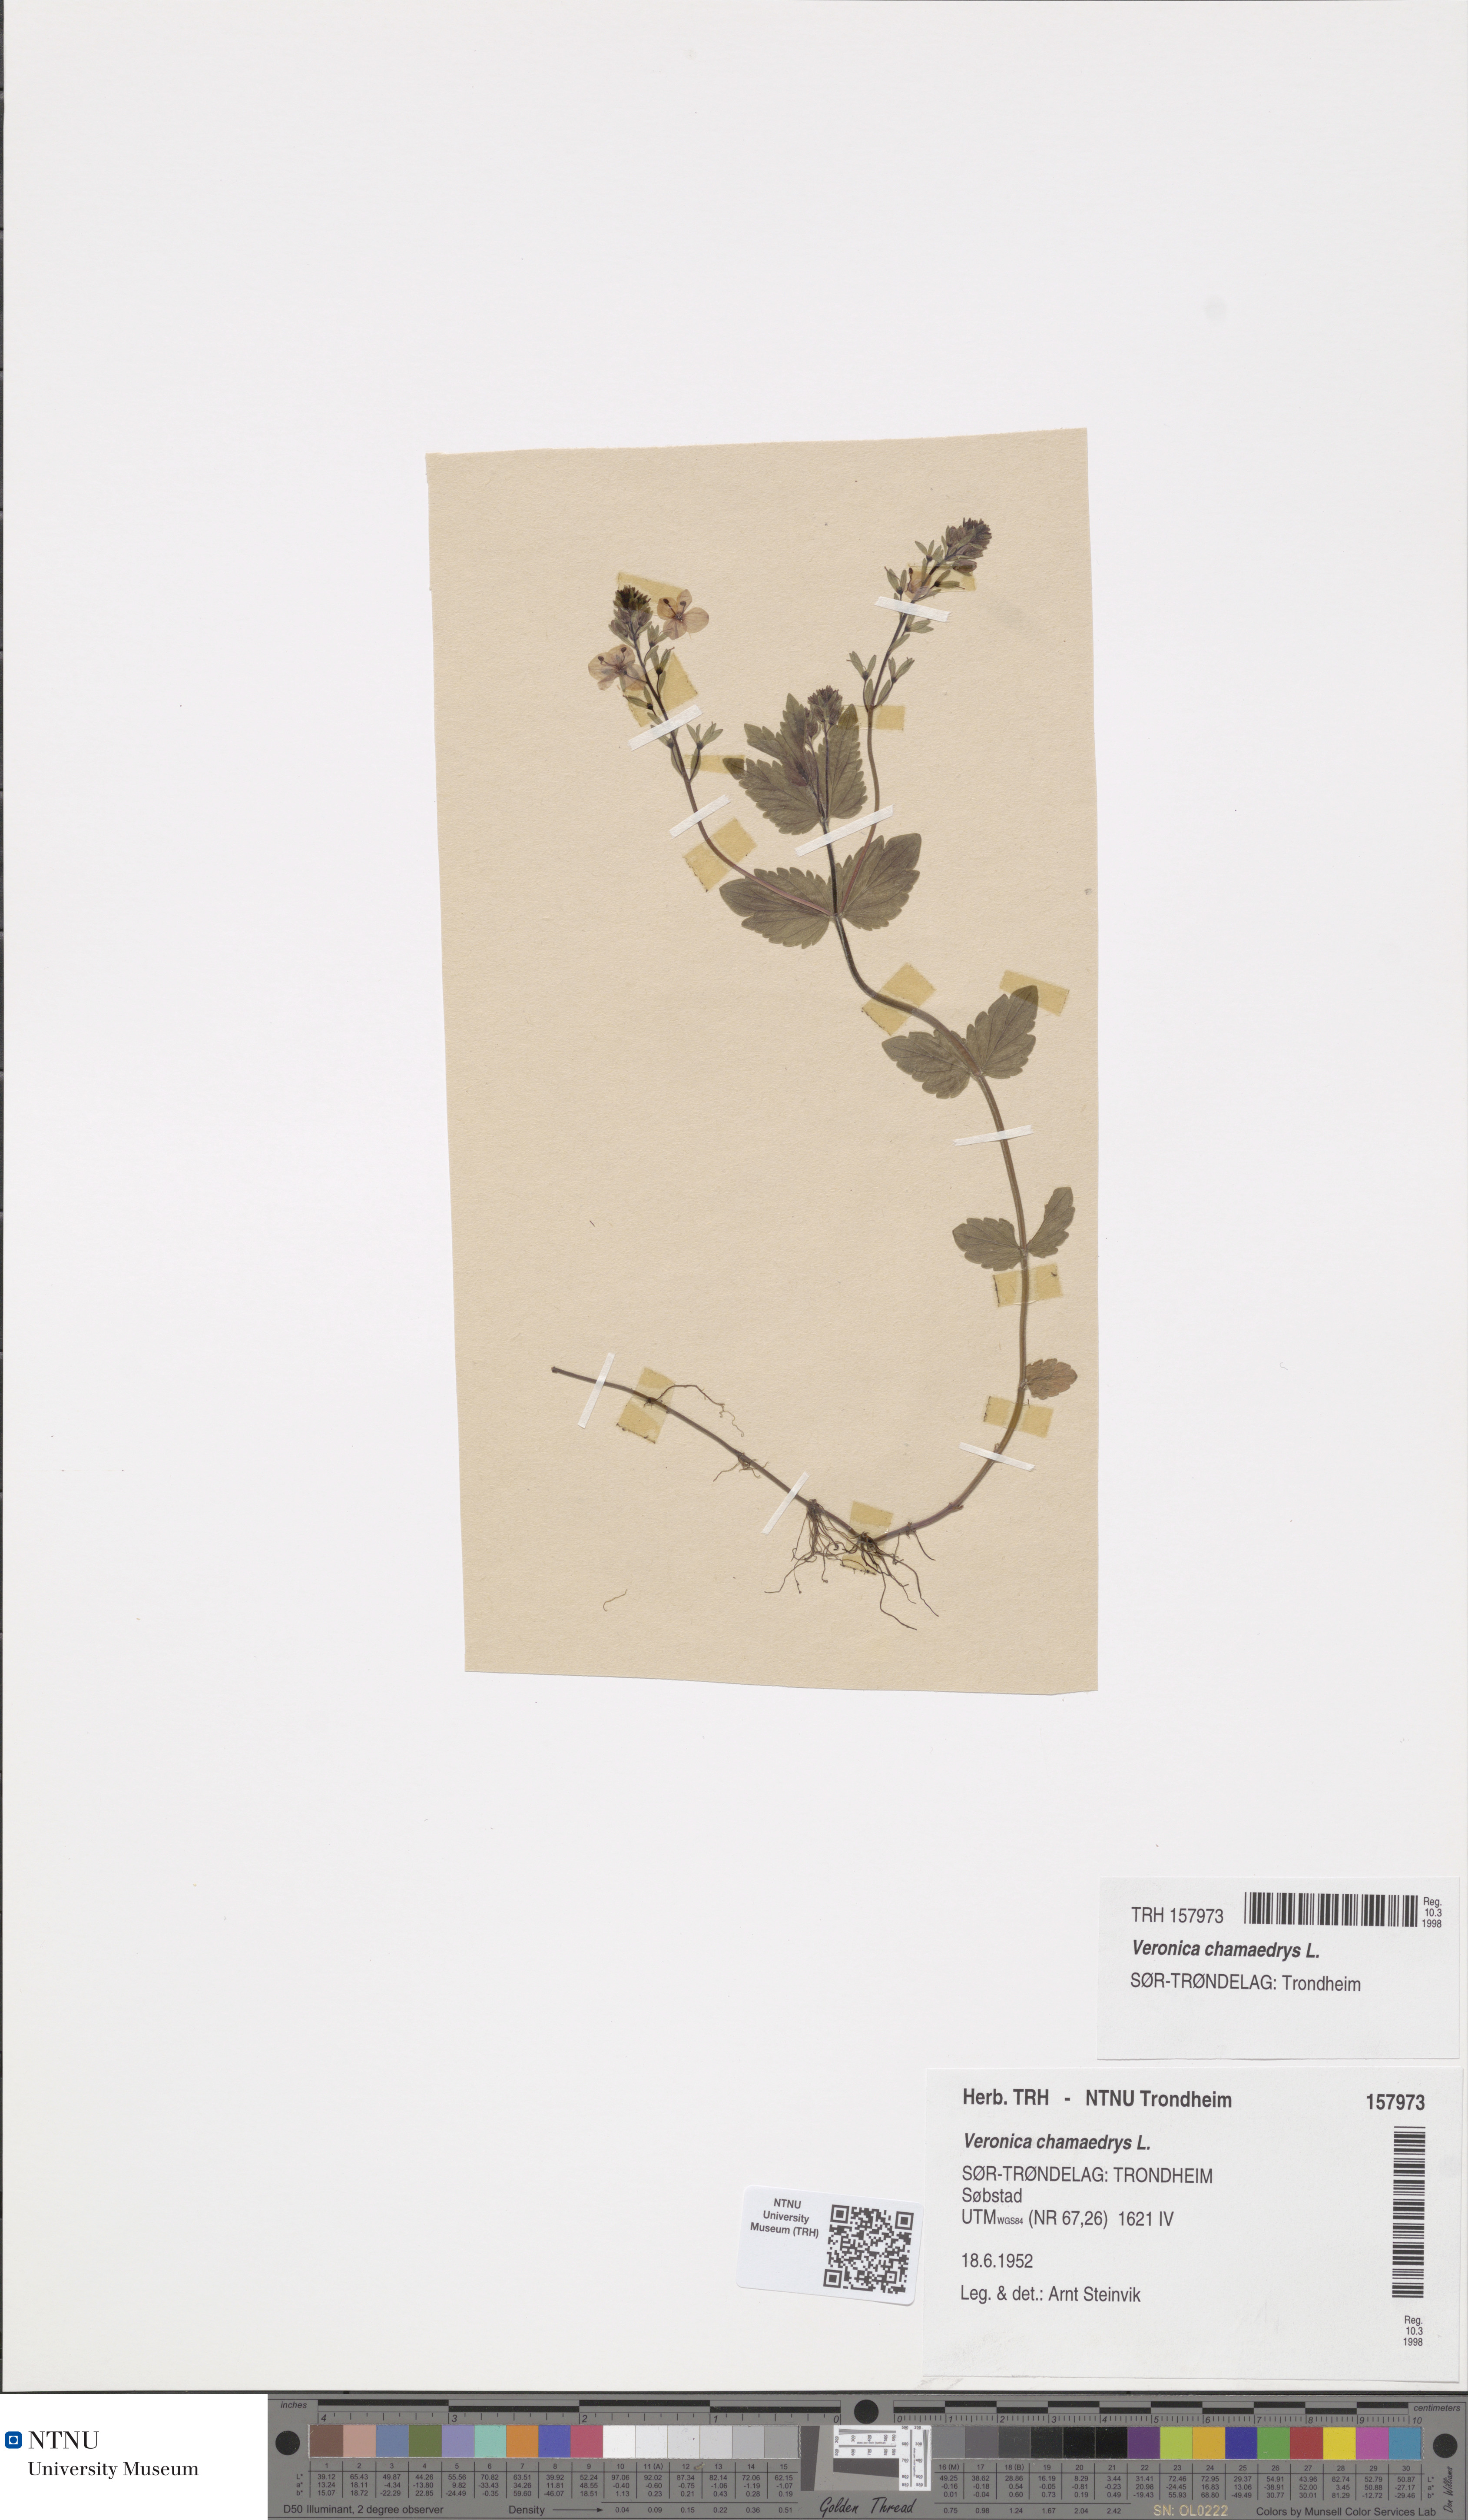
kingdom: Plantae
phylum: Tracheophyta
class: Magnoliopsida
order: Lamiales
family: Plantaginaceae
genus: Veronica
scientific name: Veronica chamaedrys
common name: Germander speedwell
